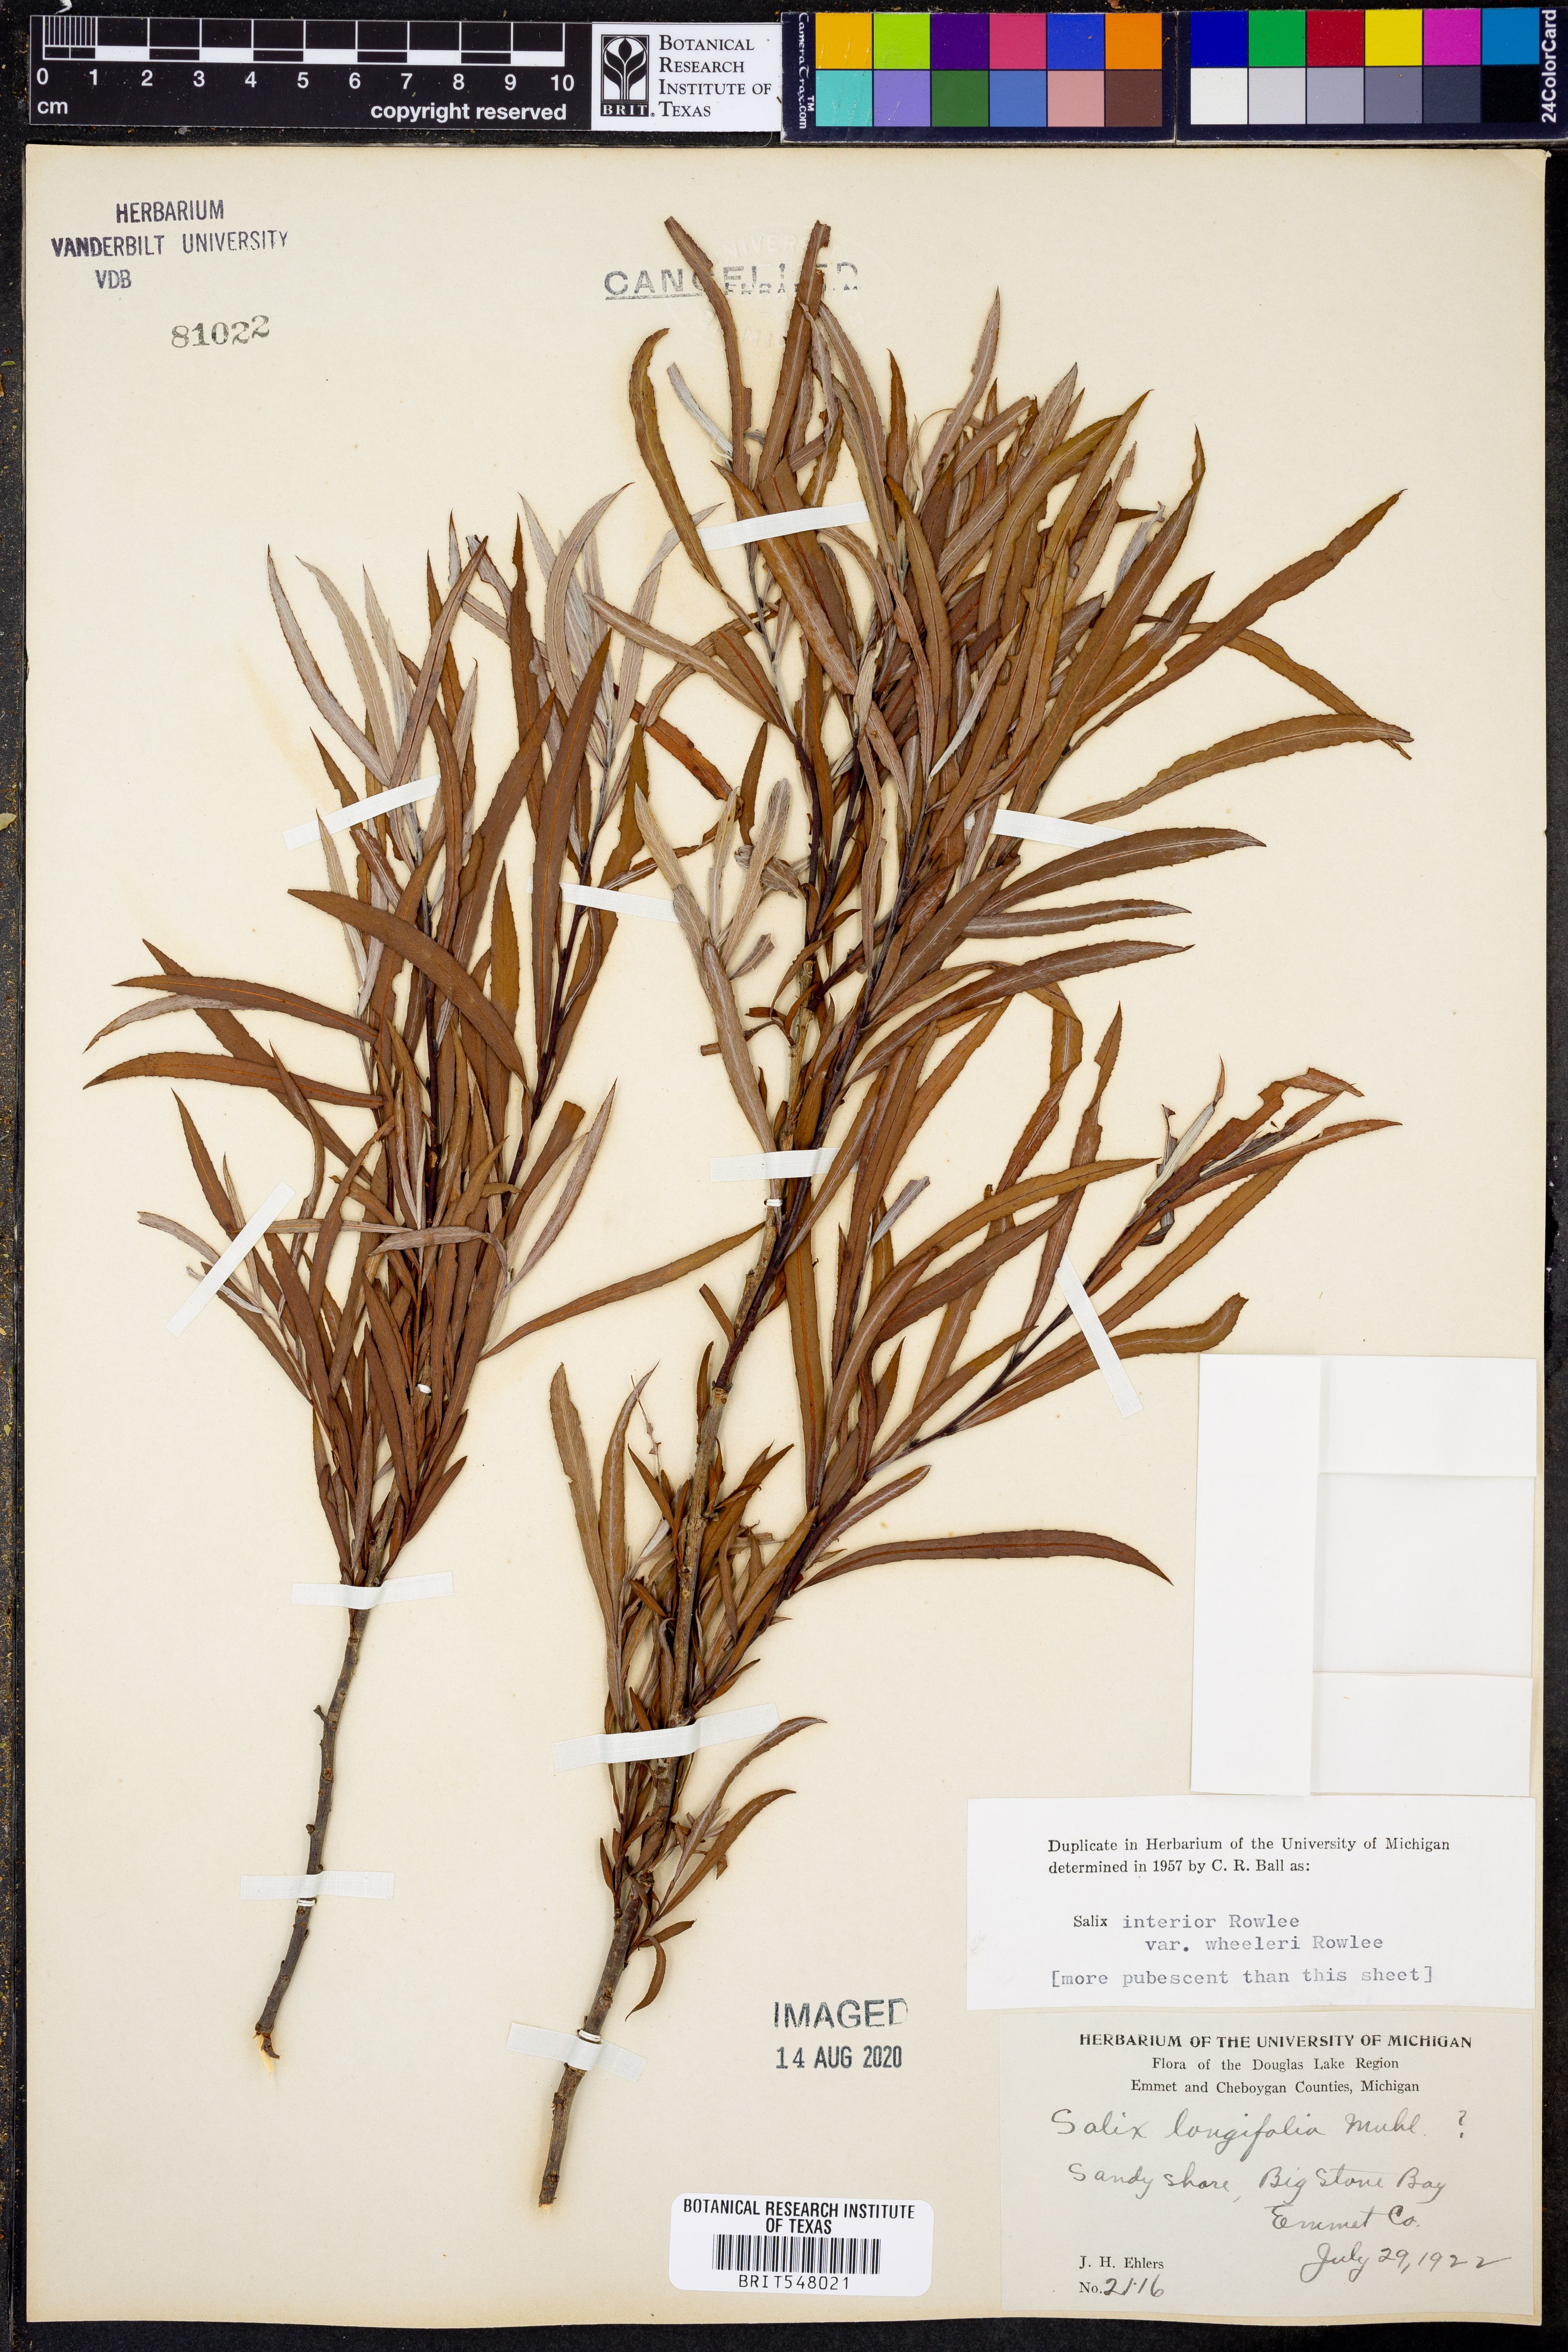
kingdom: Plantae
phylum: Tracheophyta
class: Magnoliopsida
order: Malpighiales
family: Salicaceae
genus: Salix
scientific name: Salix interior
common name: Sandbar willow
